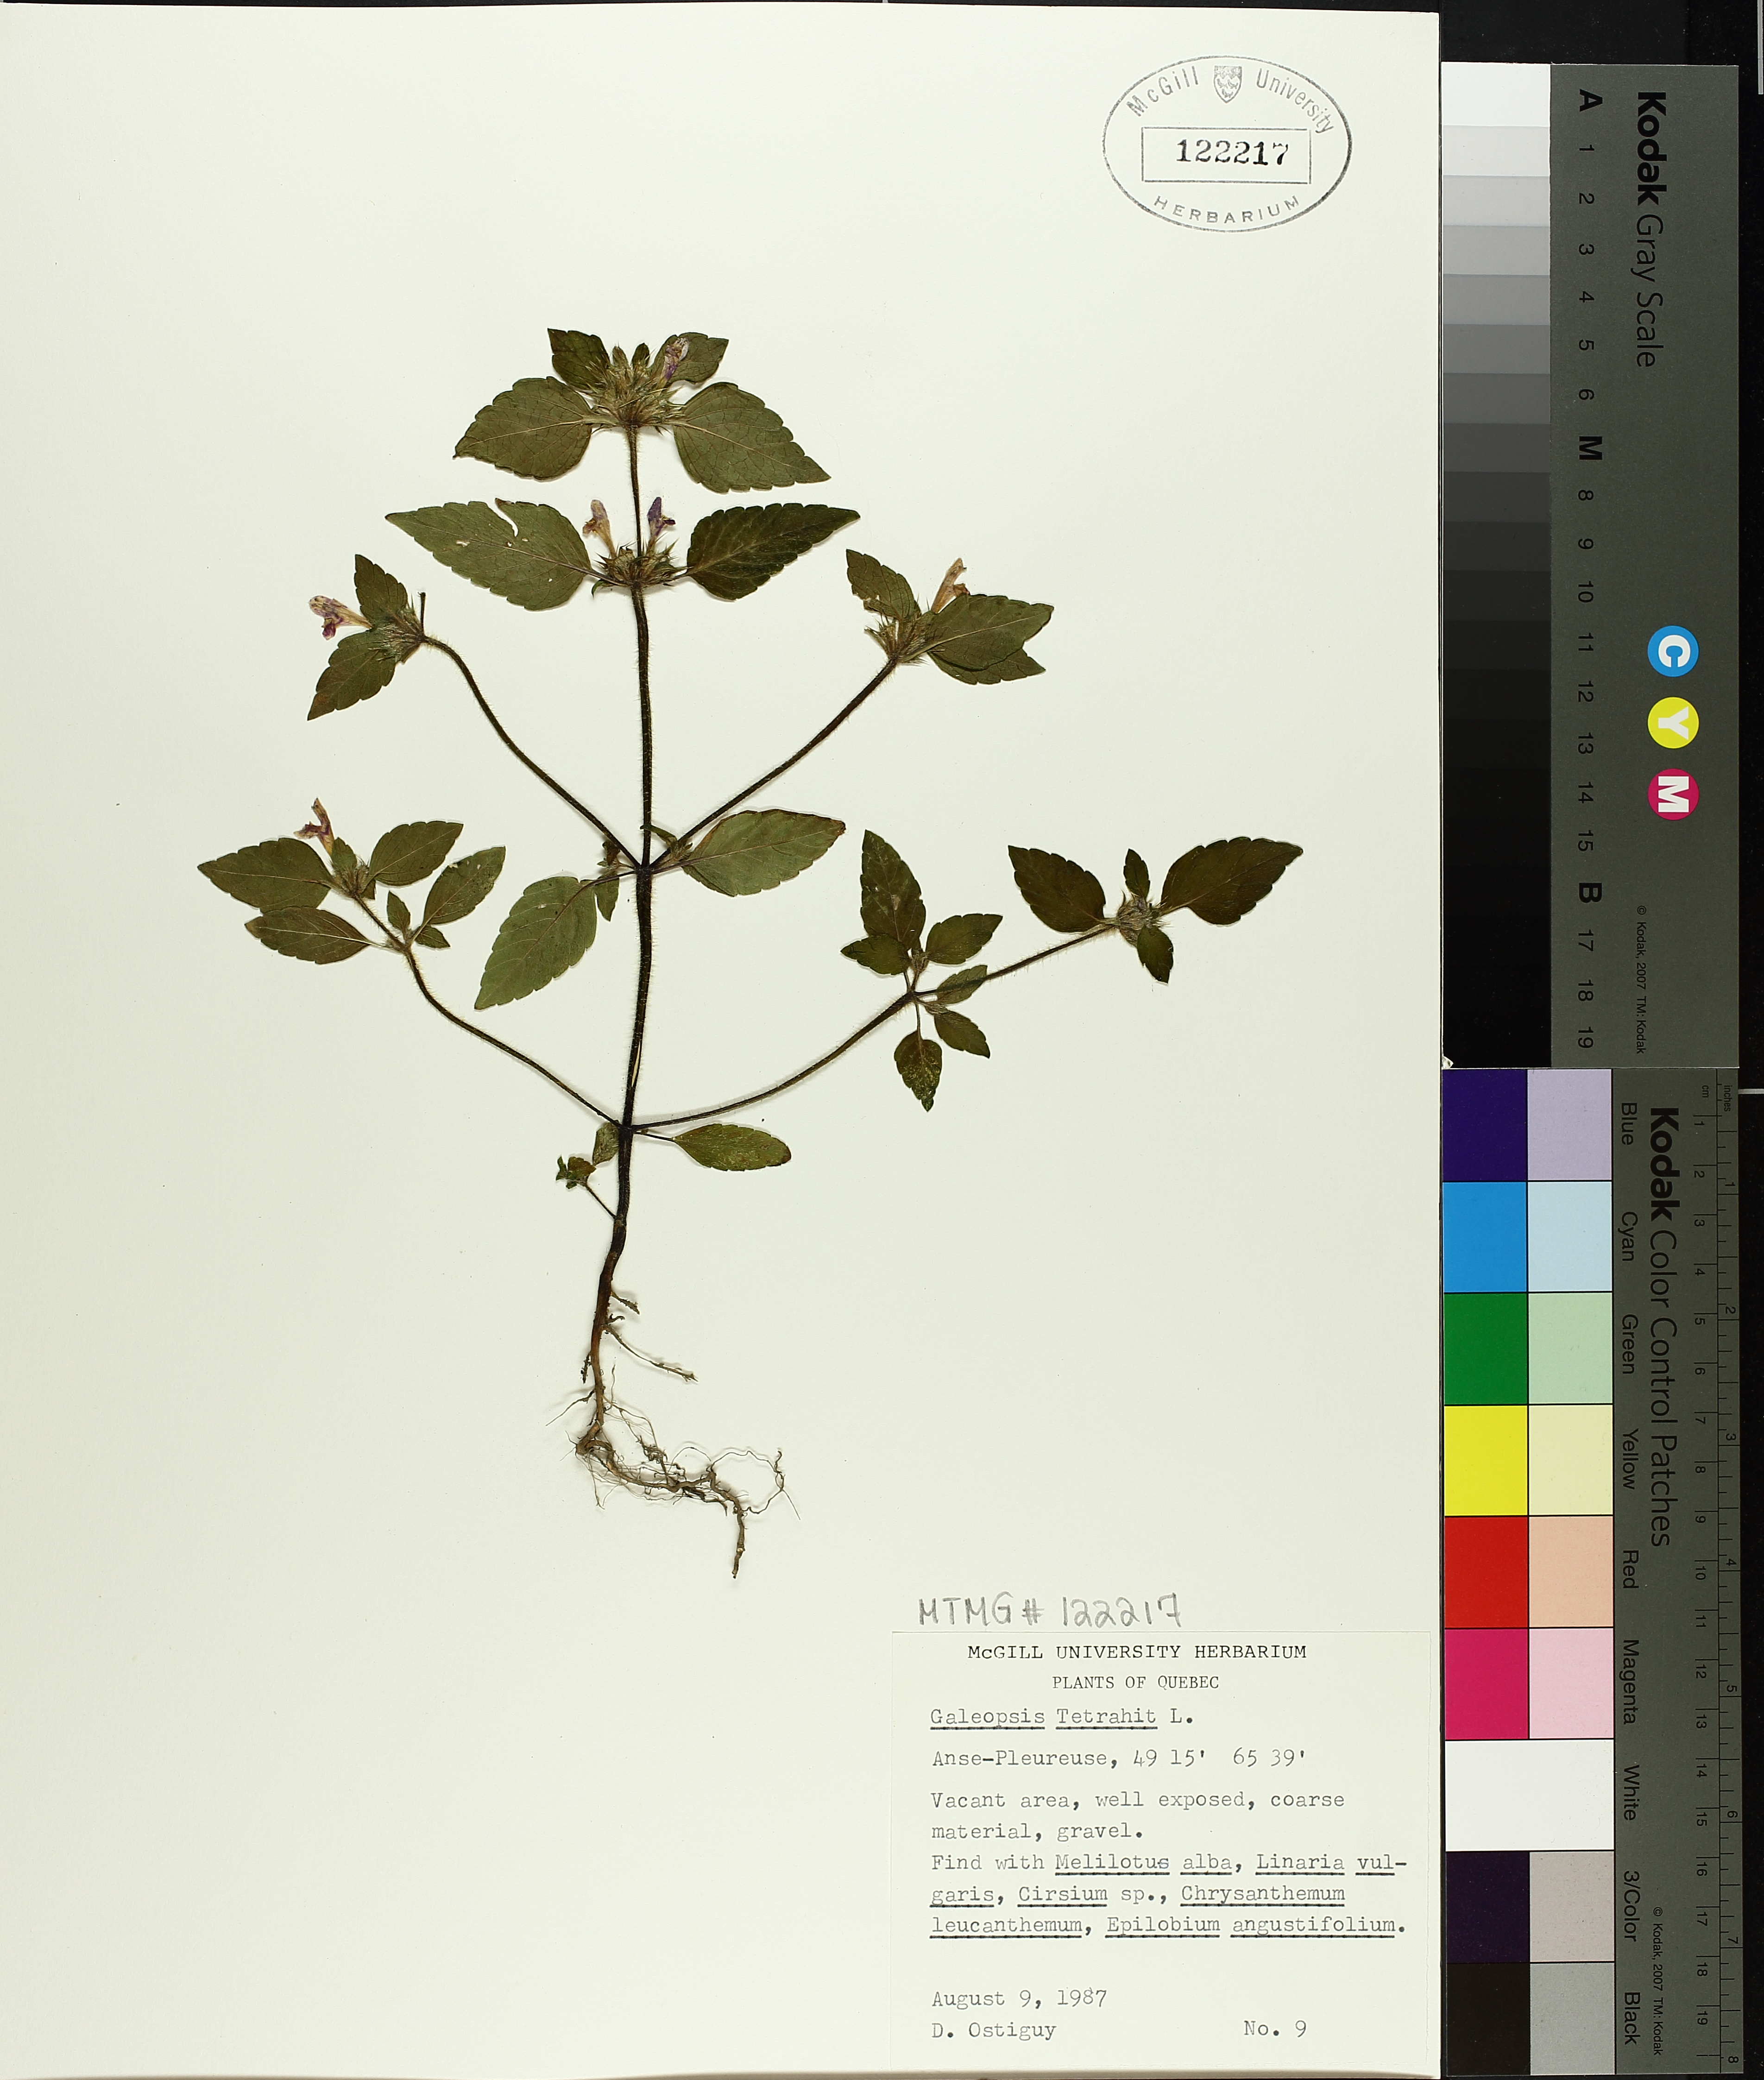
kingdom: Plantae
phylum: Tracheophyta
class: Magnoliopsida
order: Lamiales
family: Lamiaceae
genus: Galeopsis
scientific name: Galeopsis tetrahit
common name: Common hemp-nettle
